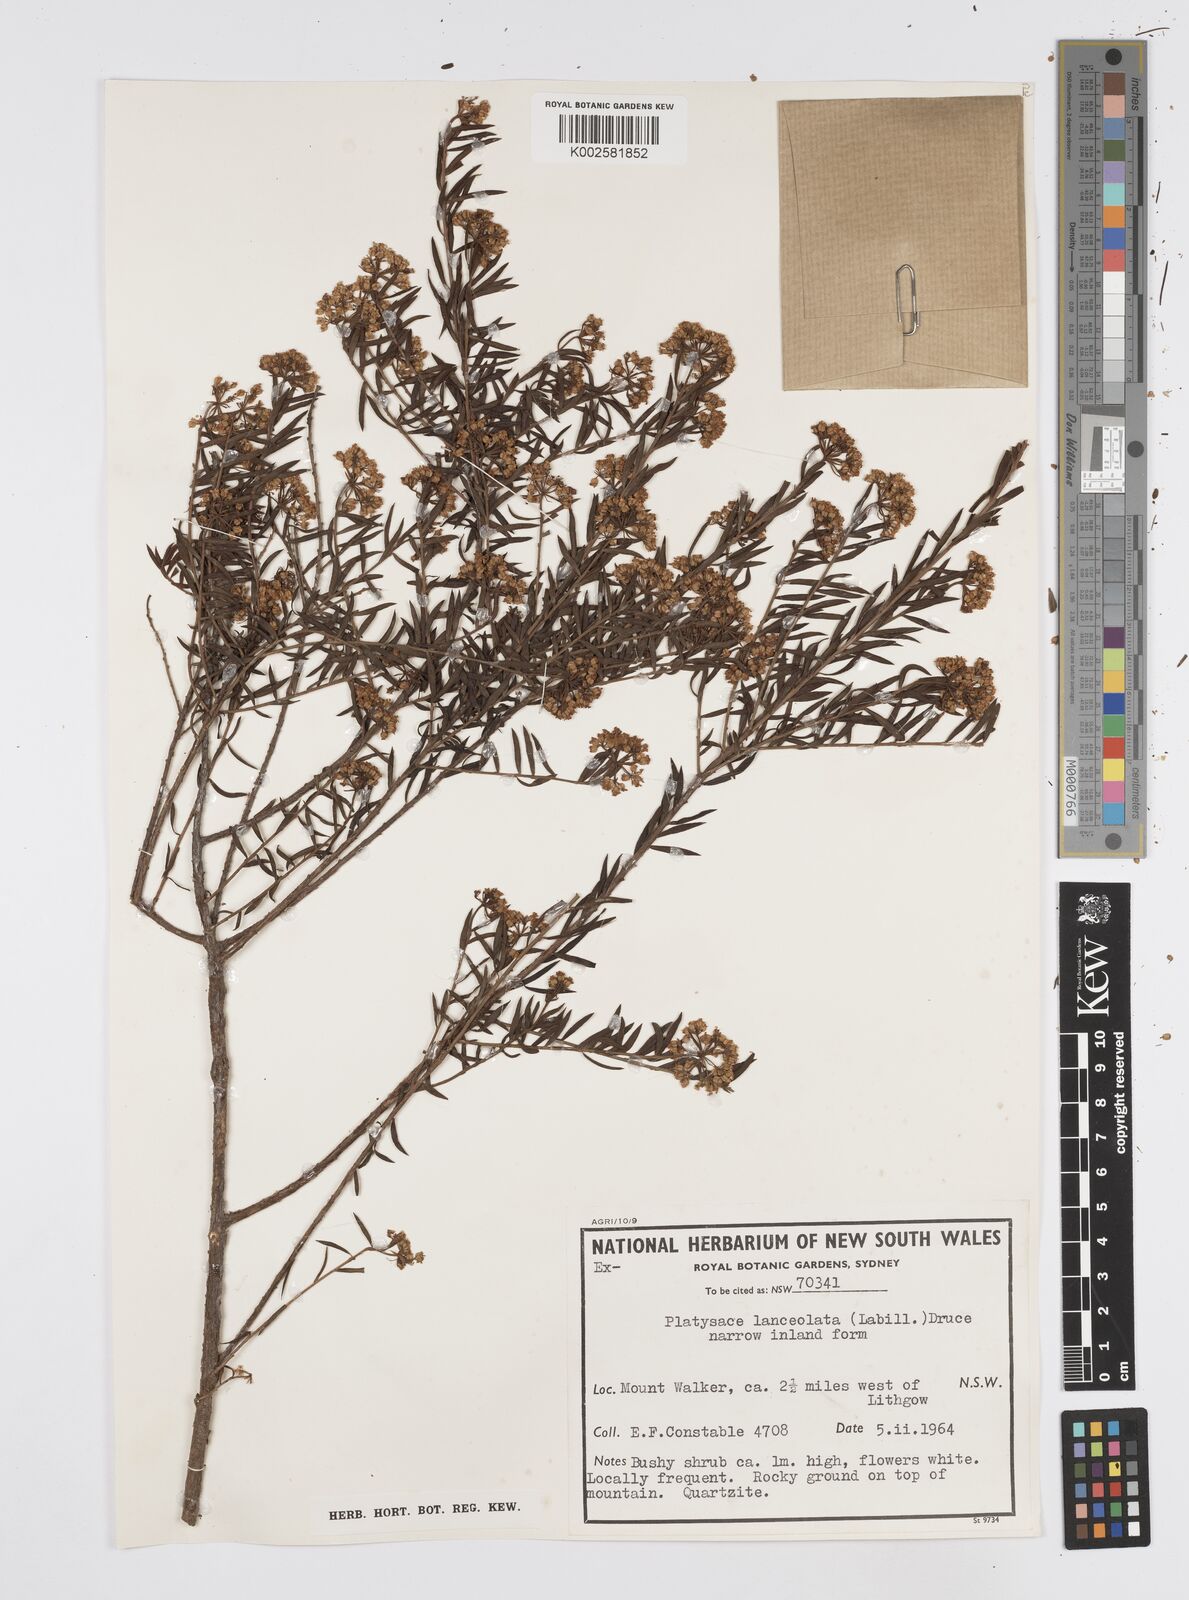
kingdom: Plantae
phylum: Tracheophyta
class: Magnoliopsida
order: Apiales
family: Apiaceae
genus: Platysace
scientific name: Platysace lanceolata
